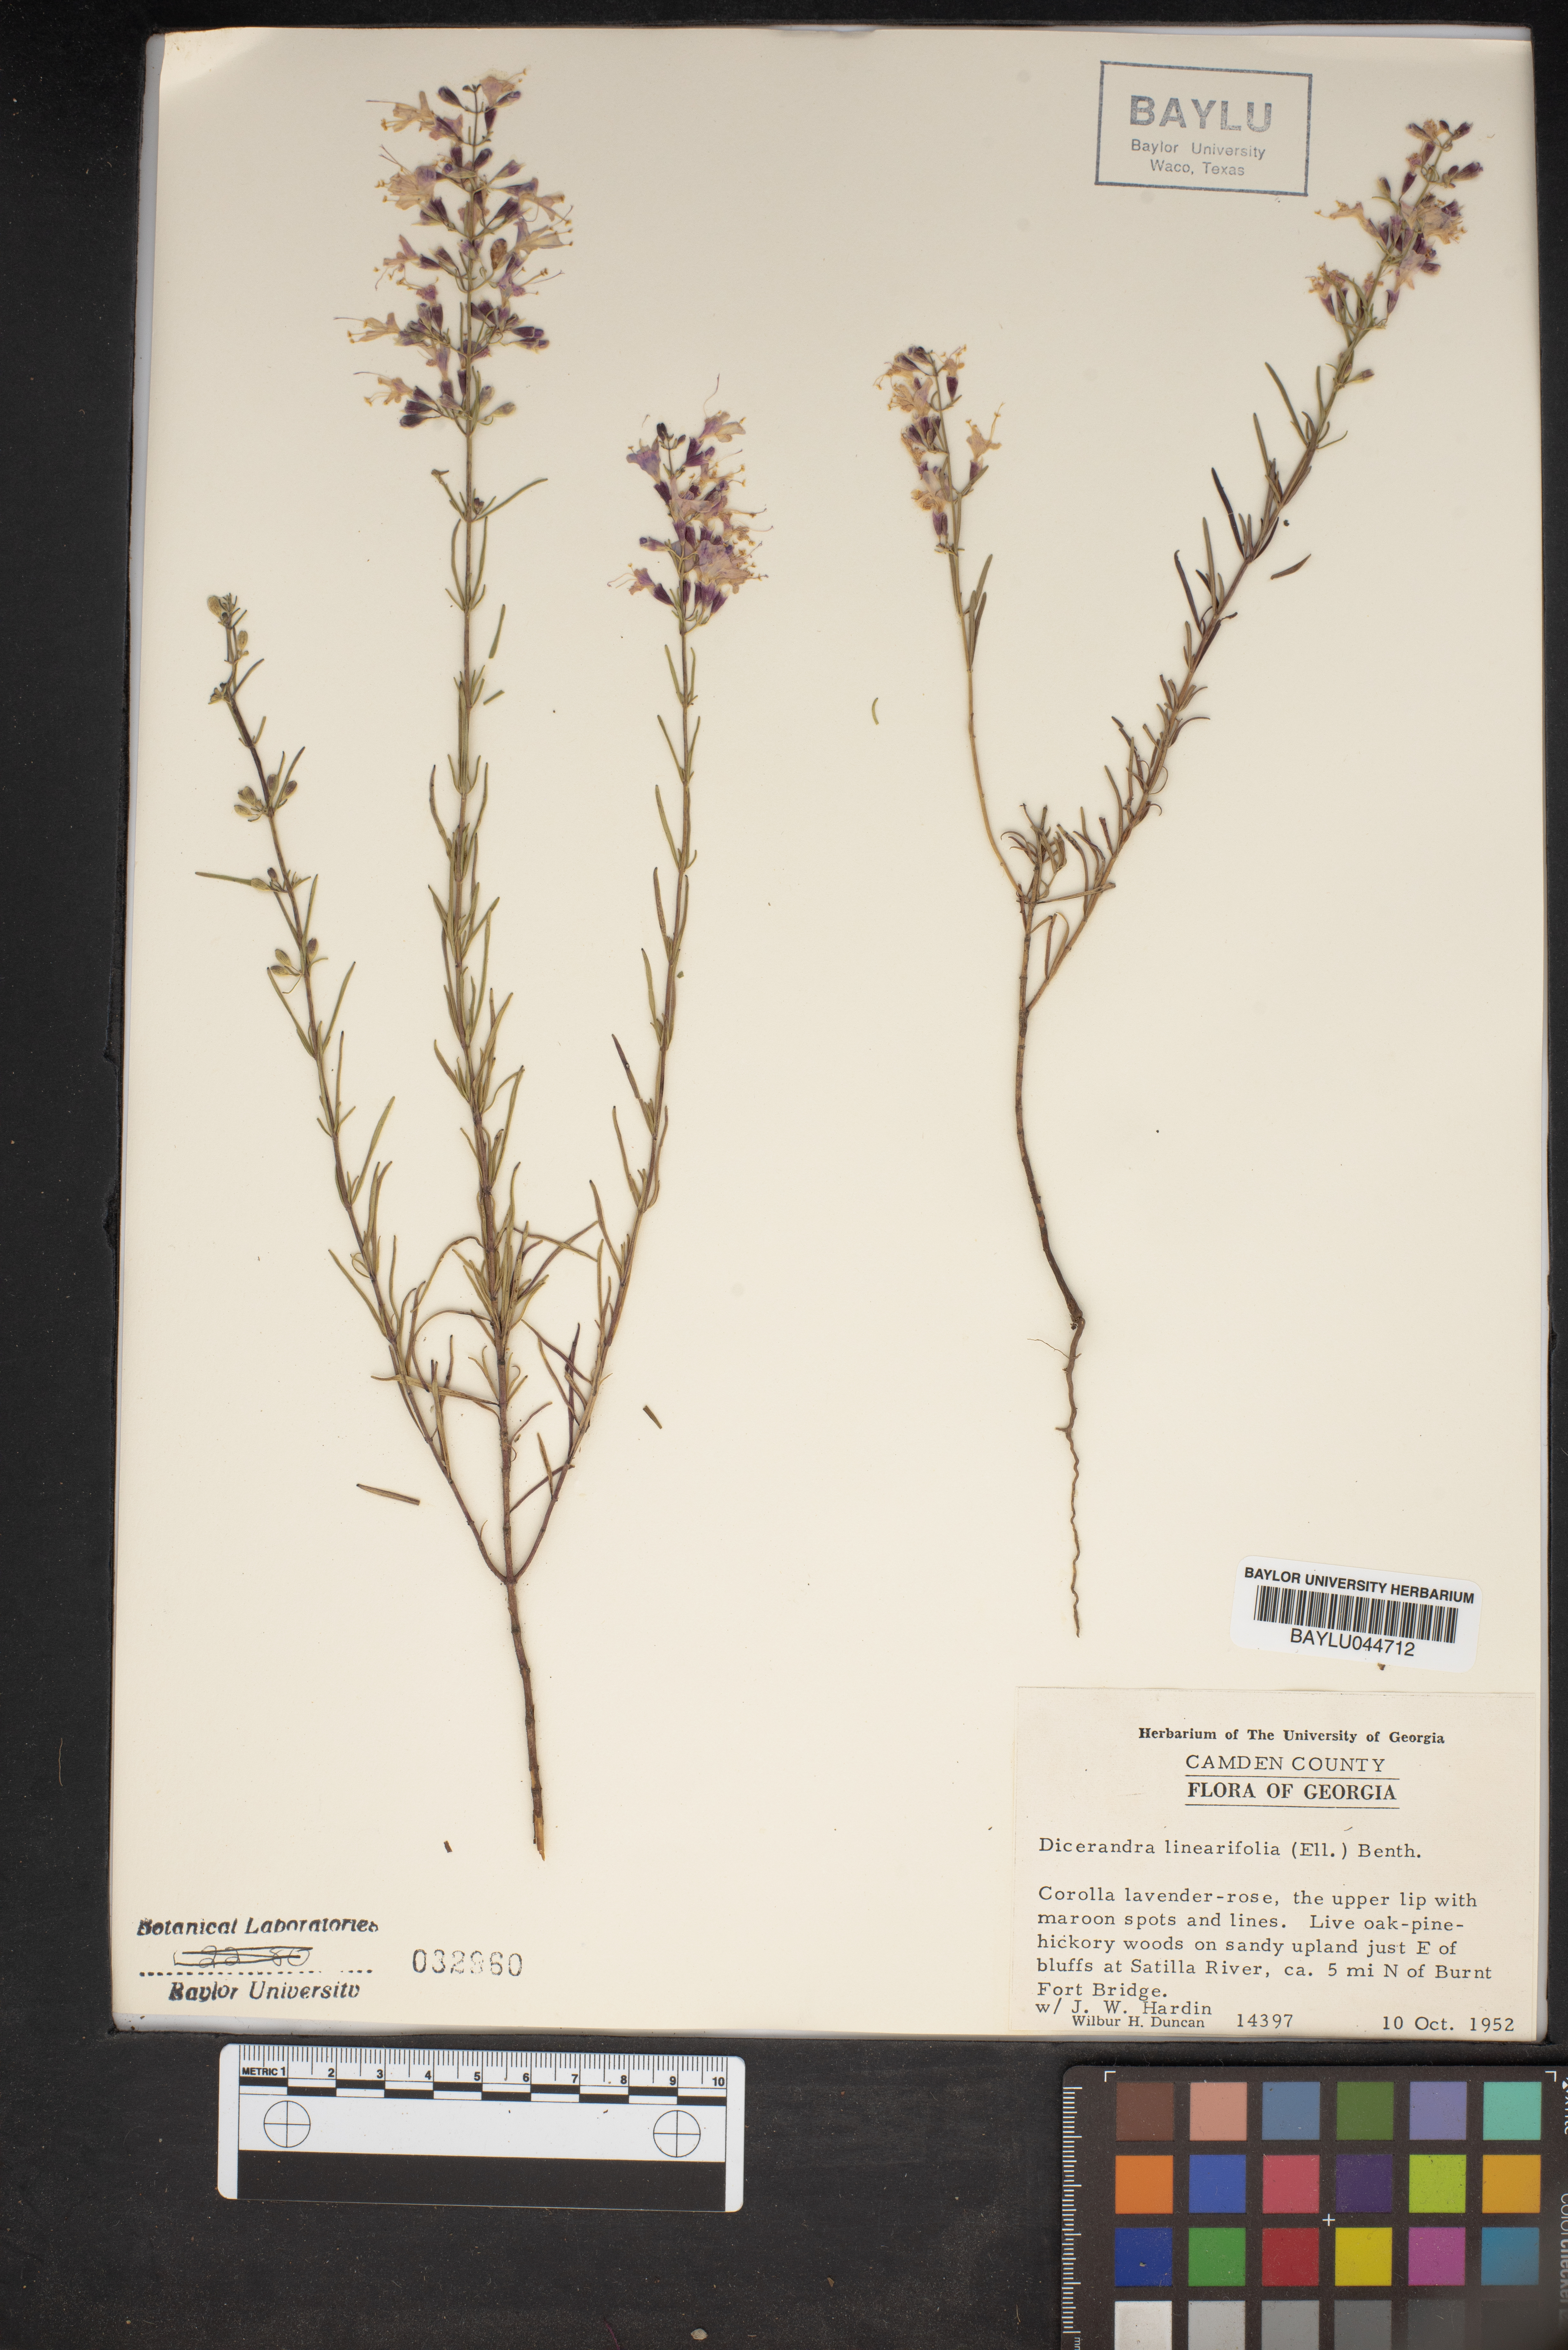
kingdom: Plantae
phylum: Tracheophyta
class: Magnoliopsida
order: Lamiales
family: Lamiaceae
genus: Dicerandra
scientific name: Dicerandra linearifolia
